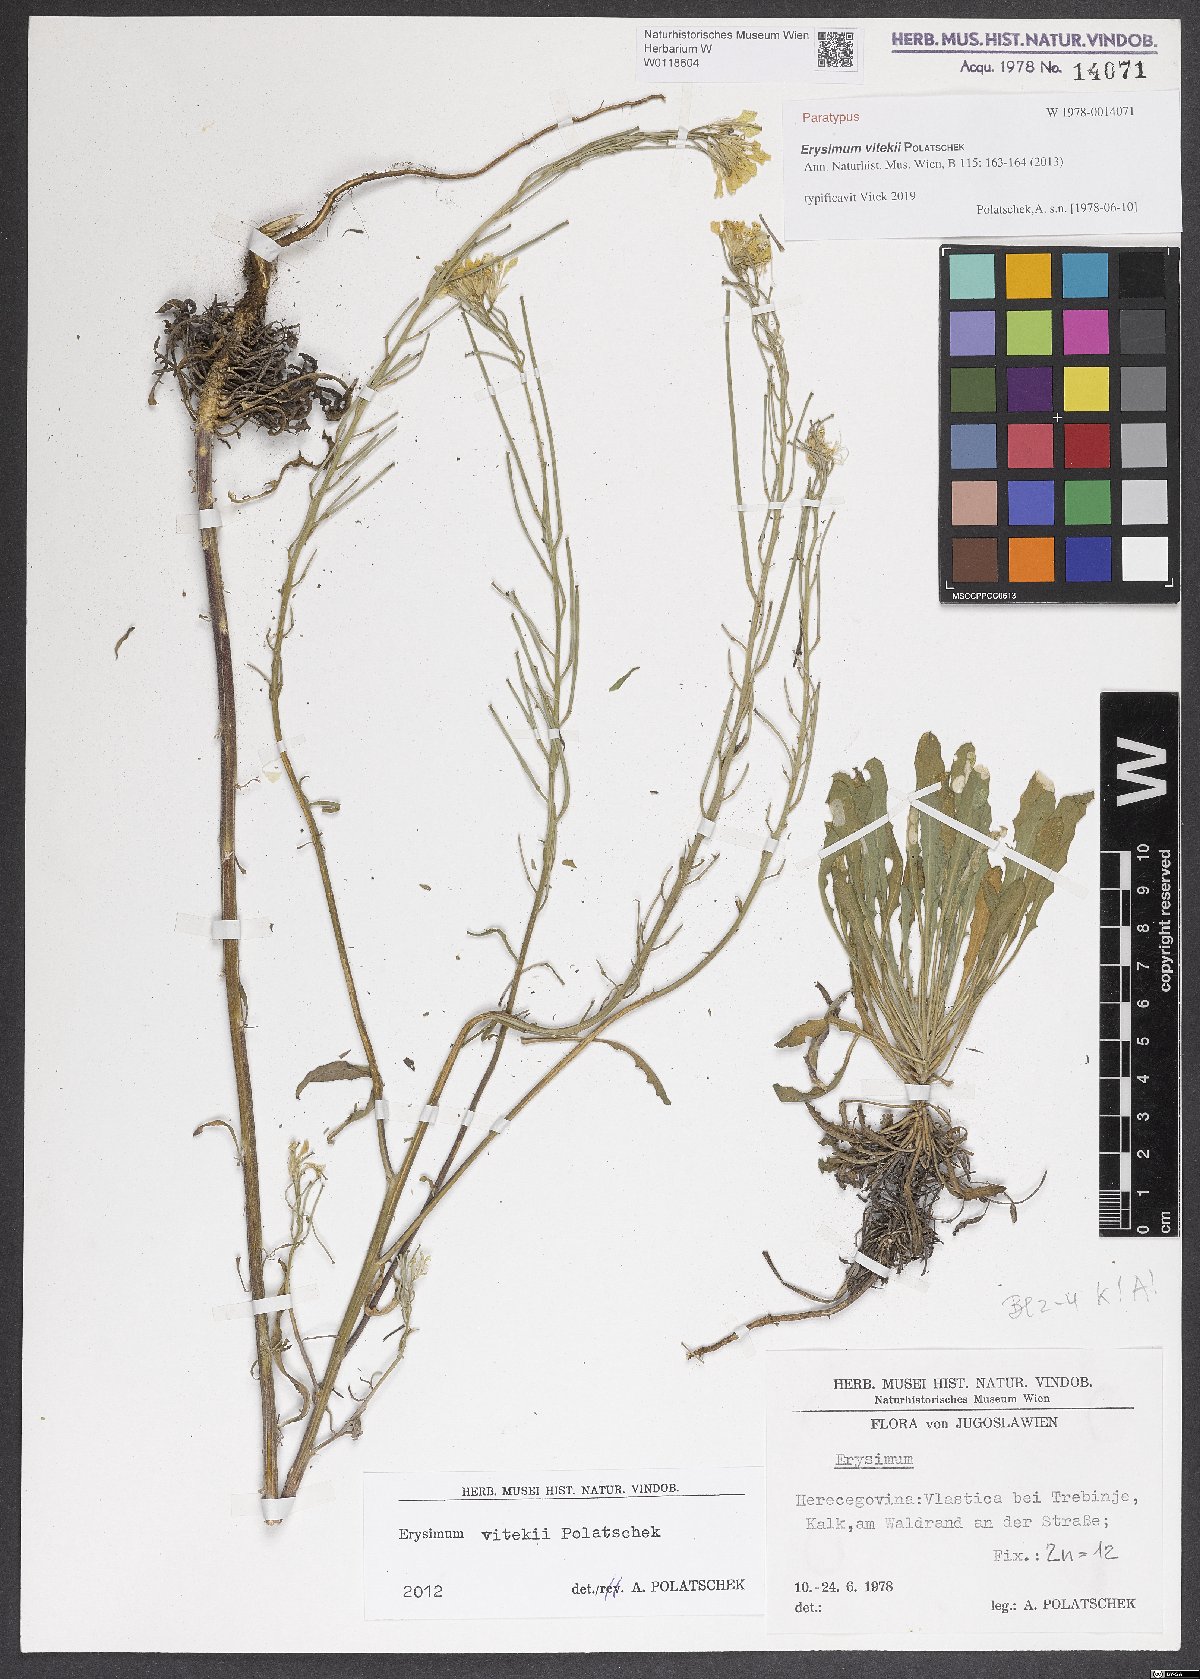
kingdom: Plantae
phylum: Tracheophyta
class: Magnoliopsida
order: Brassicales
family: Brassicaceae
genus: Erysimum
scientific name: Erysimum vitekii
